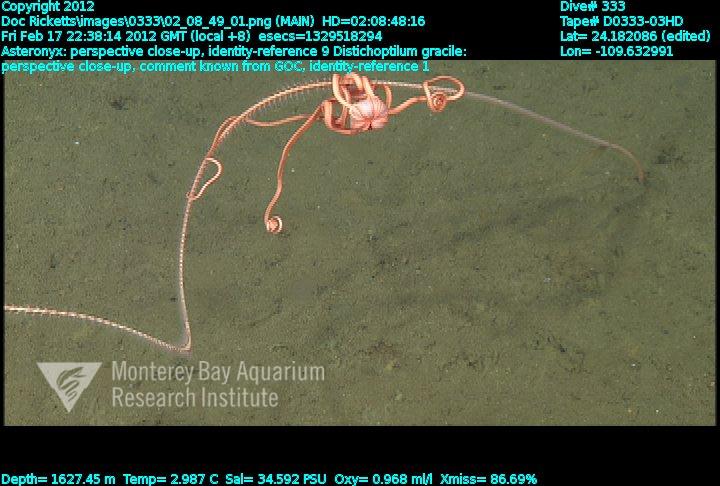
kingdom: Animalia
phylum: Cnidaria
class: Anthozoa
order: Scleralcyonacea
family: Protoptilidae
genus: Distichoptilum
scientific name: Distichoptilum gracile
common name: Slender sea pen
